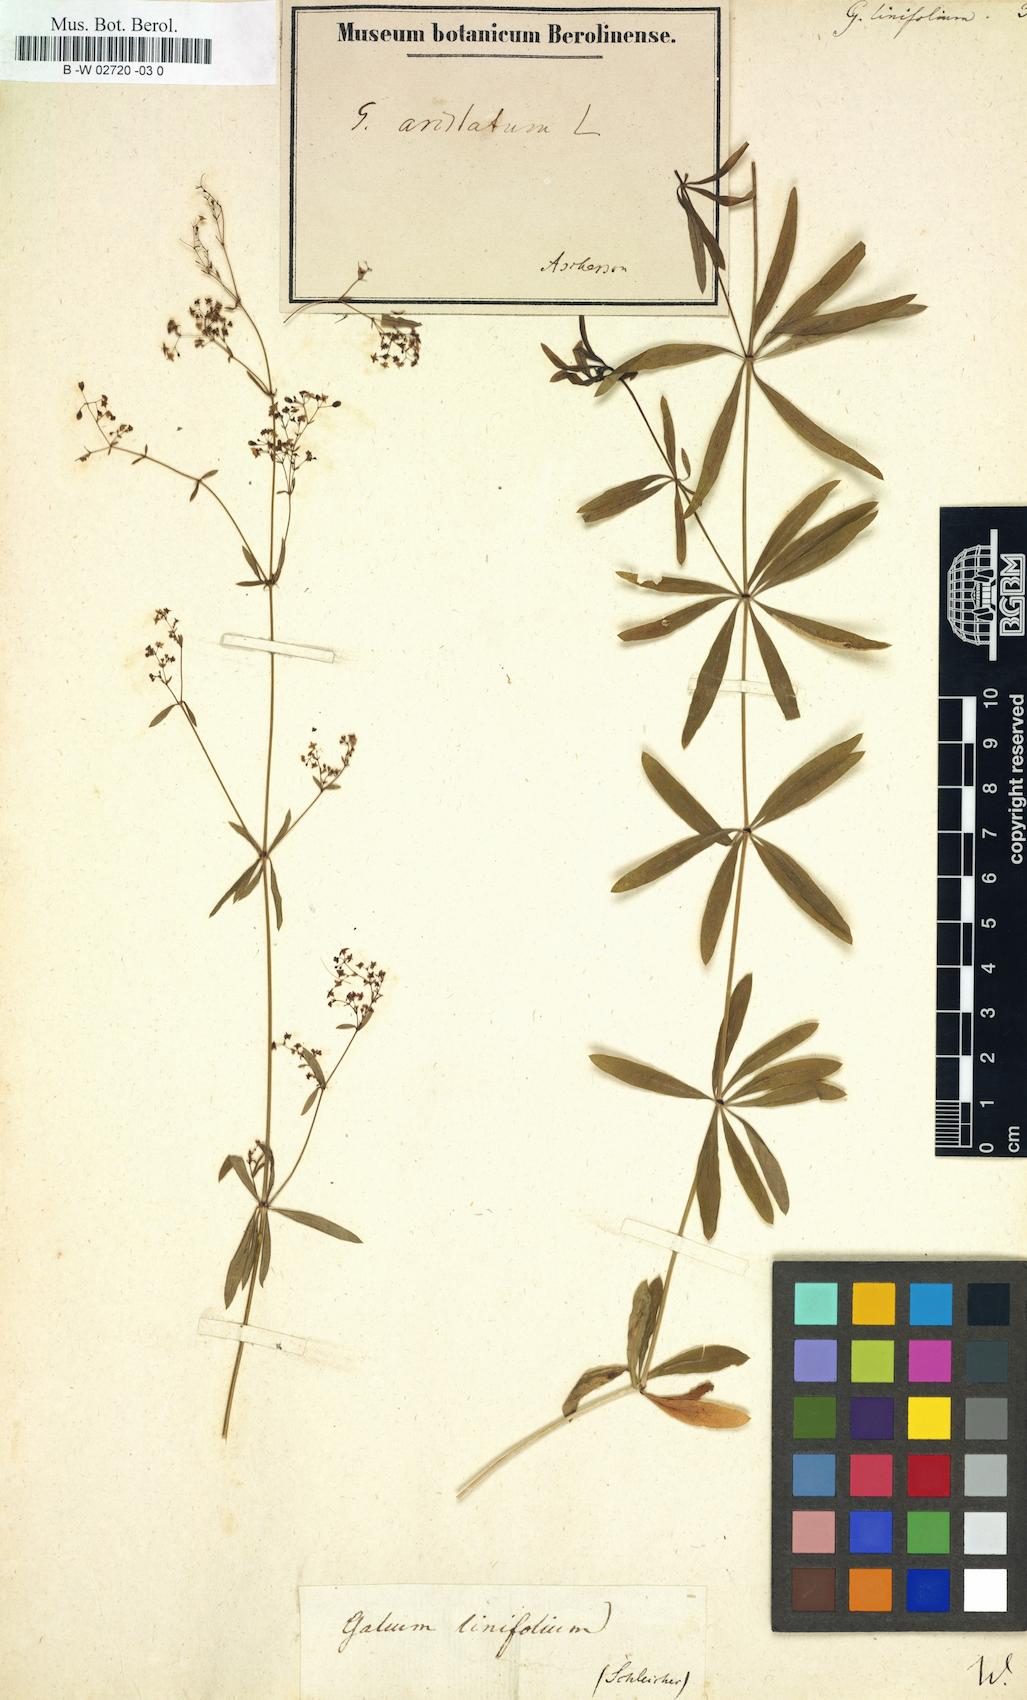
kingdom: Plantae
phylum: Tracheophyta
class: Magnoliopsida
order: Gentianales
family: Rubiaceae
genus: Galium
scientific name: Galium aristatum
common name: Awned bedstraw
